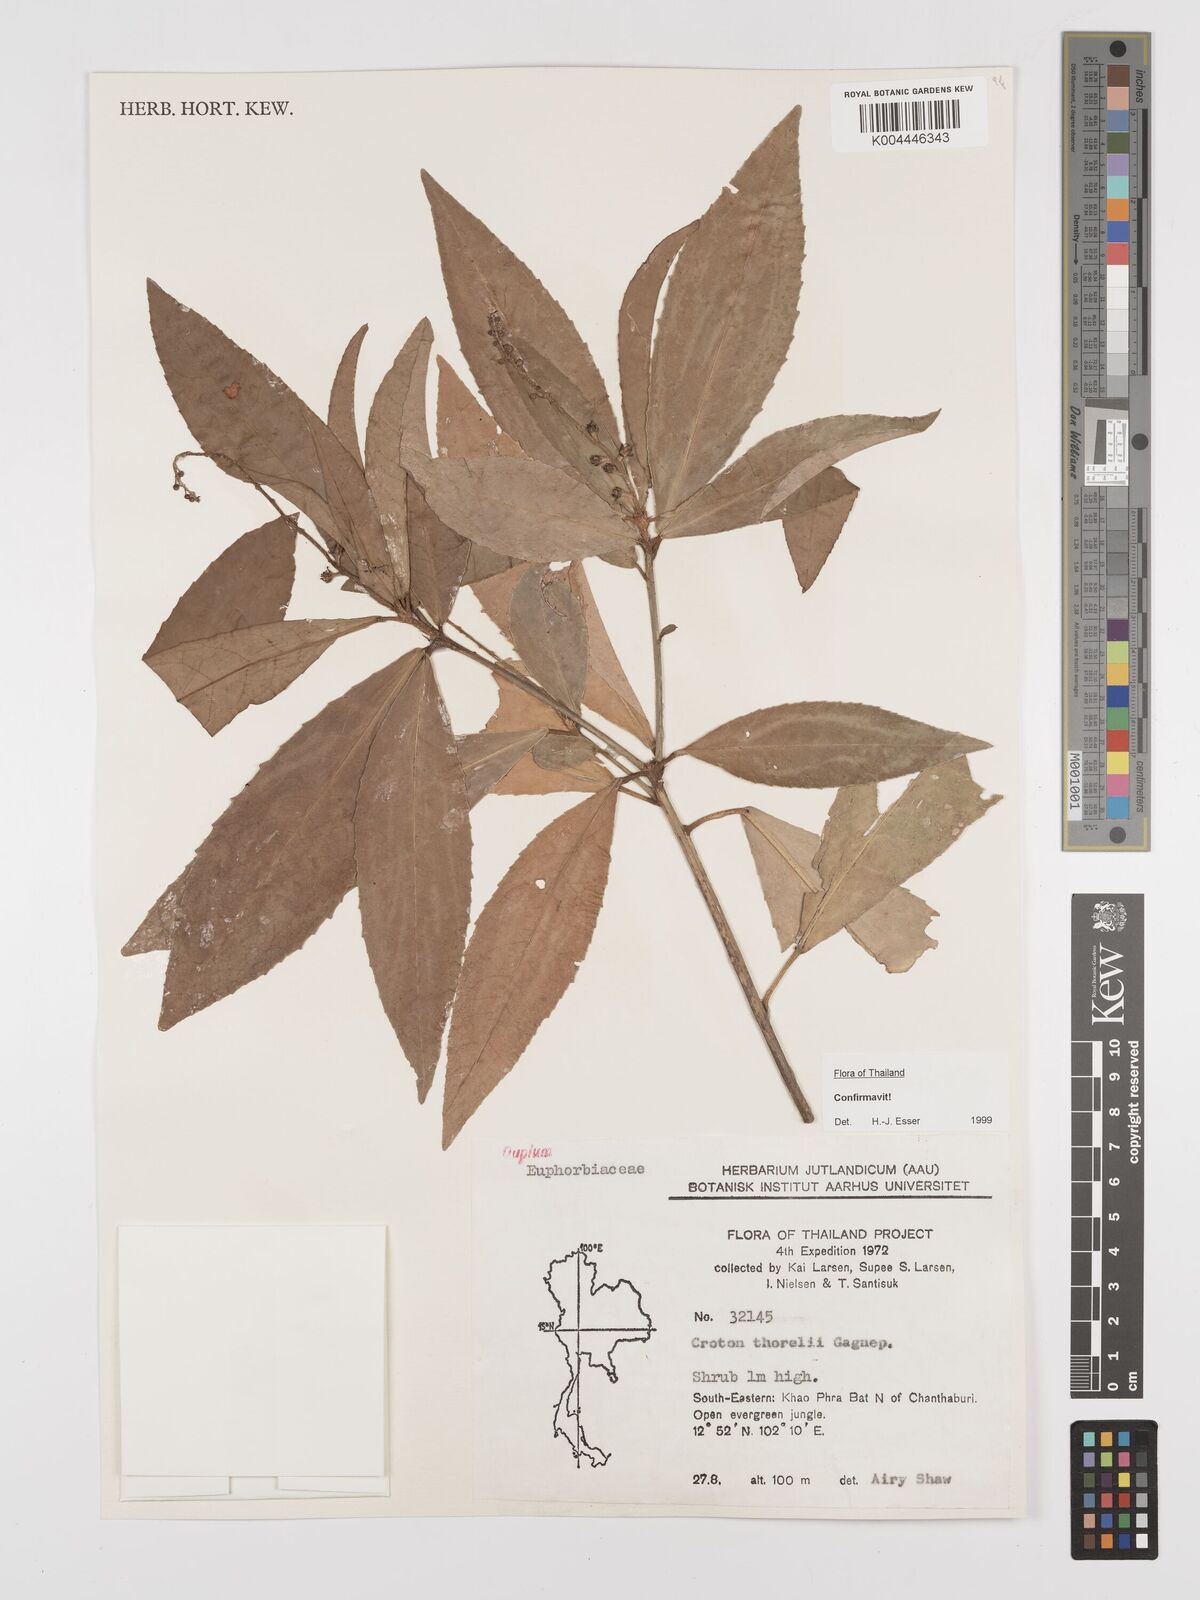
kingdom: Plantae
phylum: Tracheophyta
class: Magnoliopsida
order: Malpighiales
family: Euphorbiaceae
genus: Croton
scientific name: Croton thorelii
